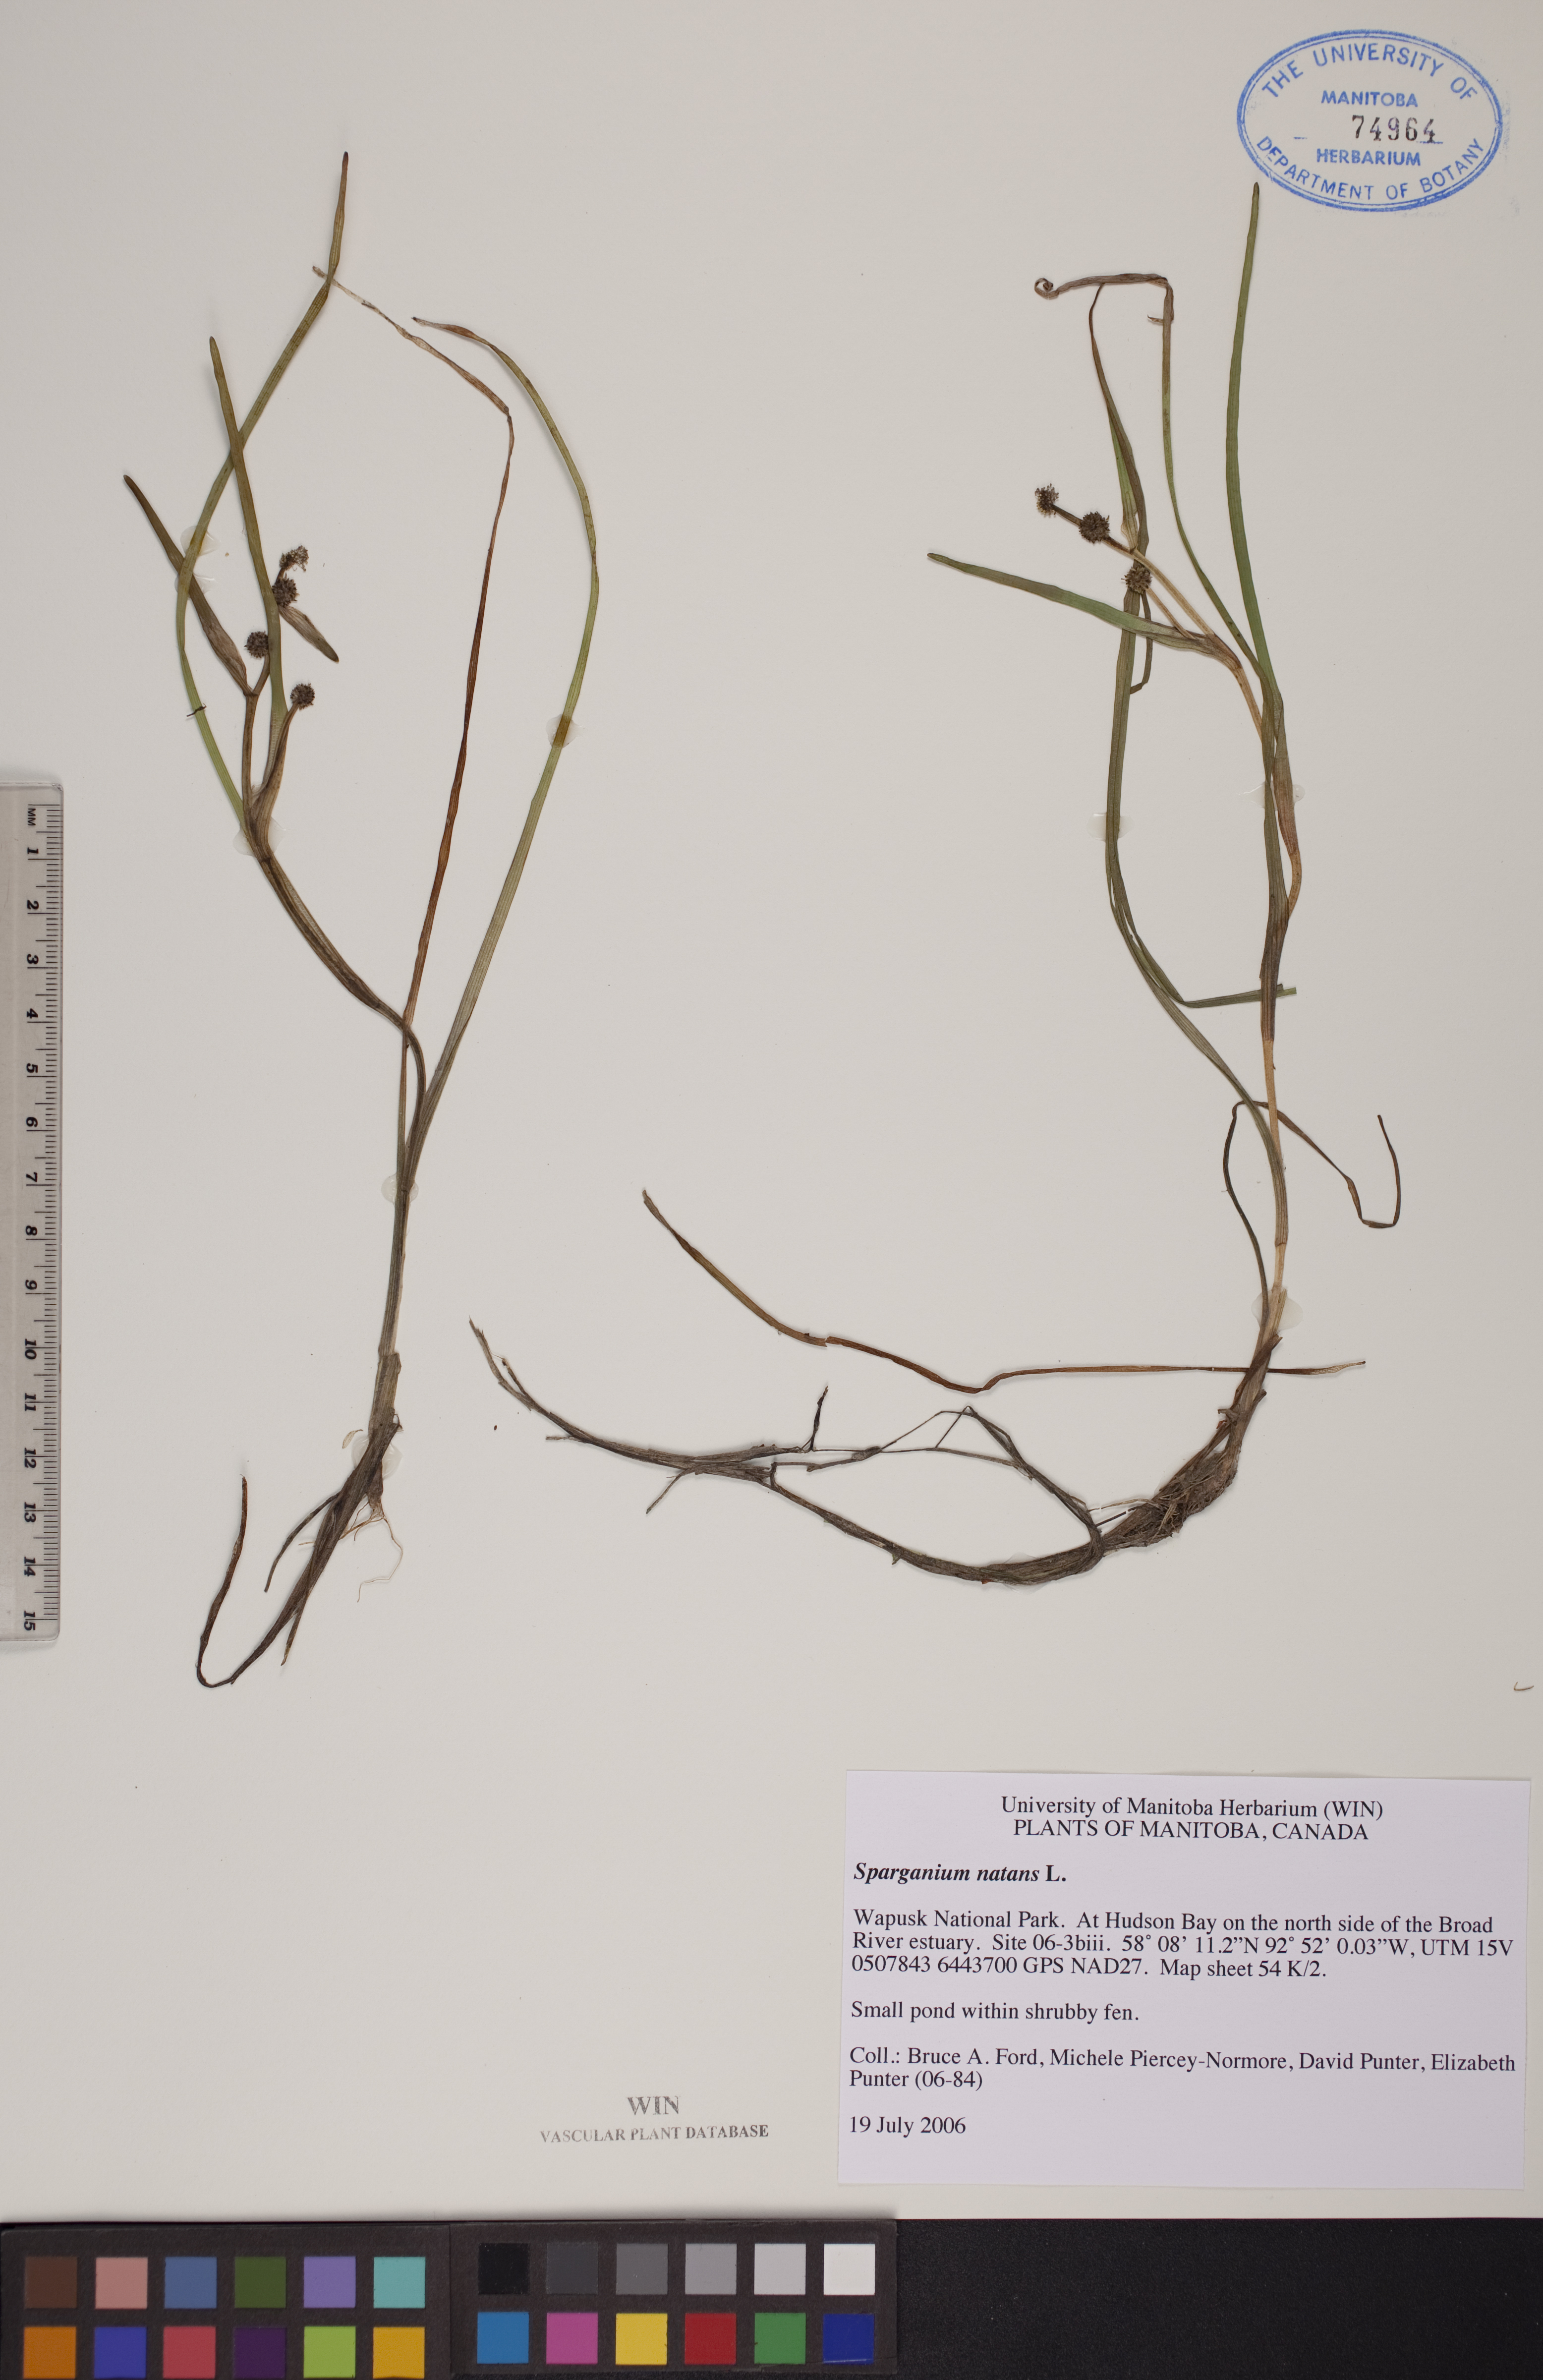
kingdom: Plantae
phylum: Tracheophyta
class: Liliopsida
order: Poales
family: Typhaceae
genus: Sparganium
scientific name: Sparganium natans
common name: Least bur-reed
